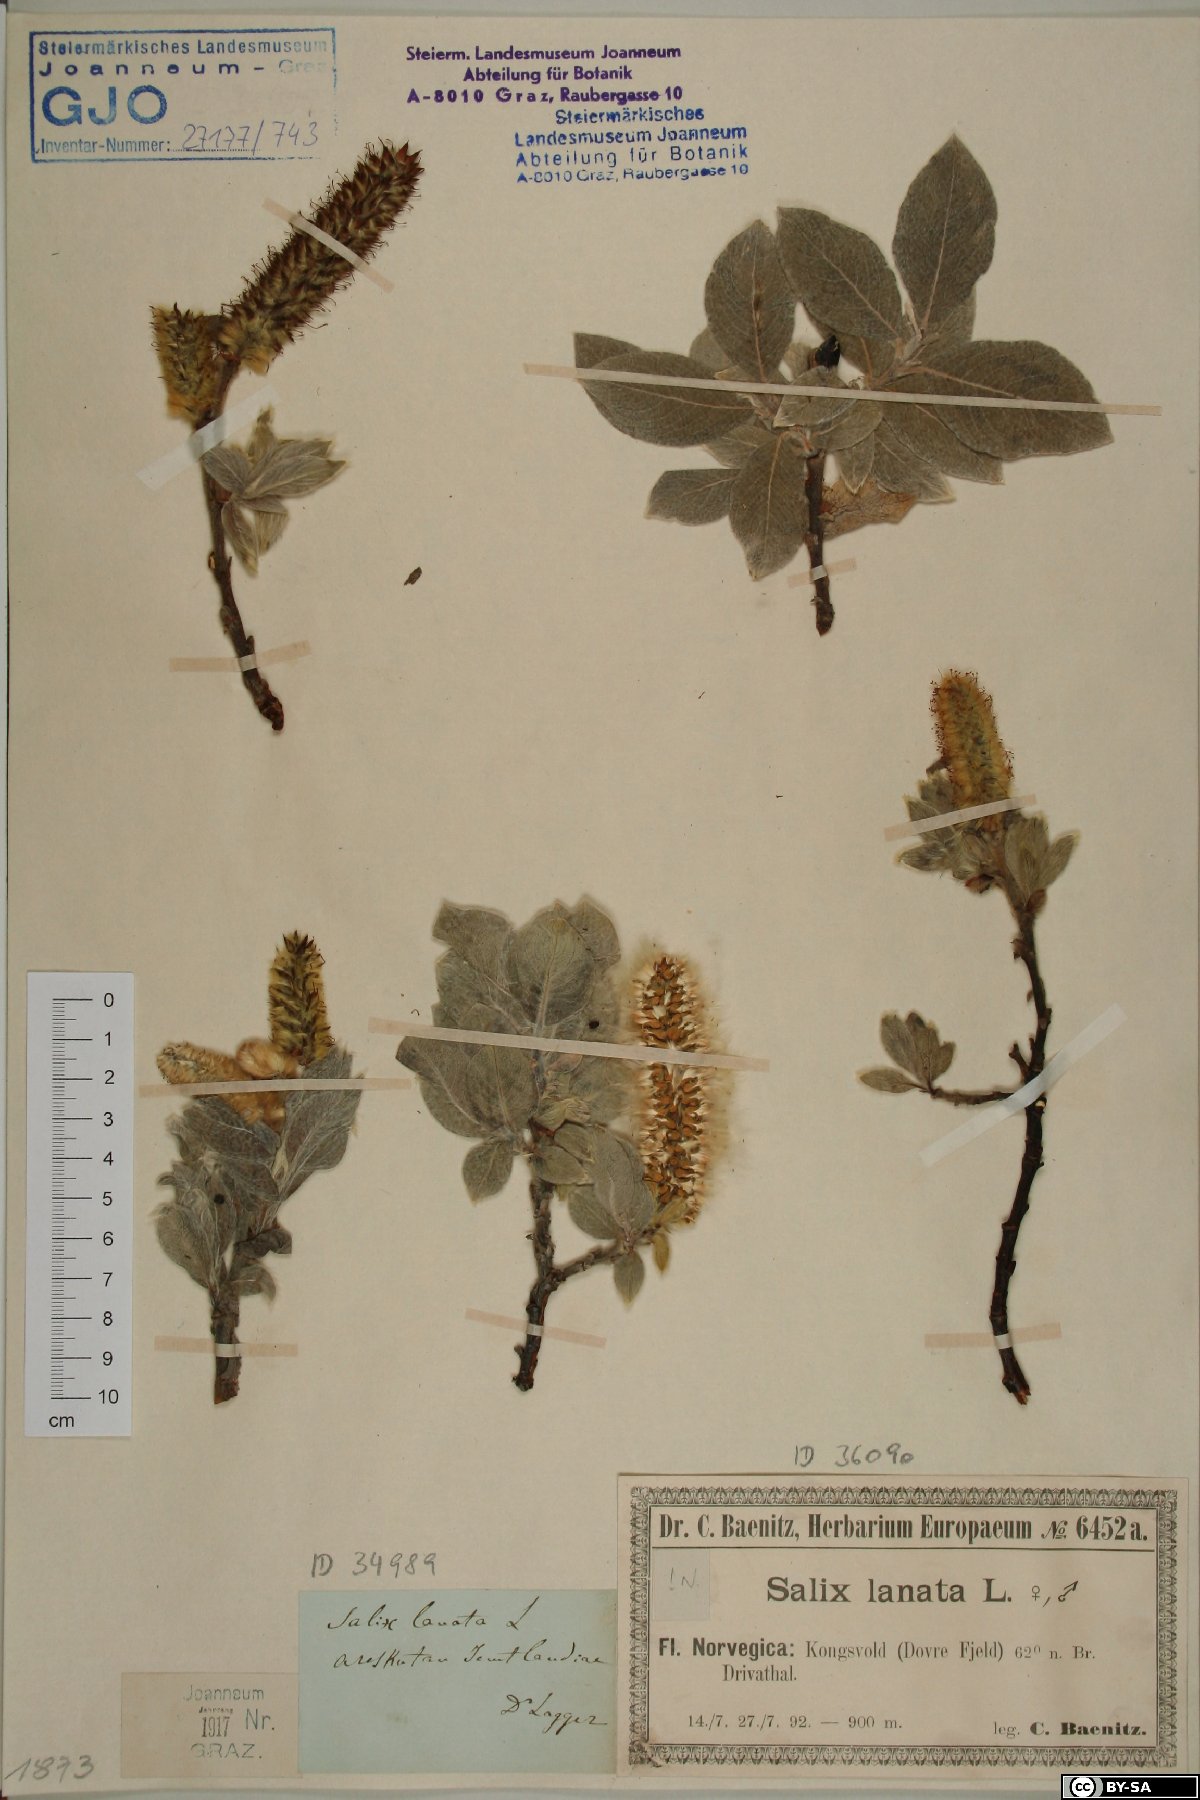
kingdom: Plantae
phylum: Tracheophyta
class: Magnoliopsida
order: Malpighiales
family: Salicaceae
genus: Salix
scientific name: Salix lanata
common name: Woolly willow
